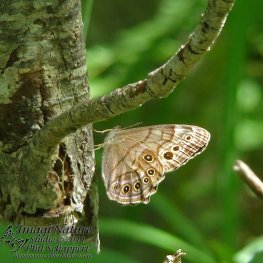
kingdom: Animalia
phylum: Arthropoda
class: Insecta
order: Lepidoptera
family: Nymphalidae
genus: Lethe
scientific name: Lethe anthedon
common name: Northern Pearly-Eye
